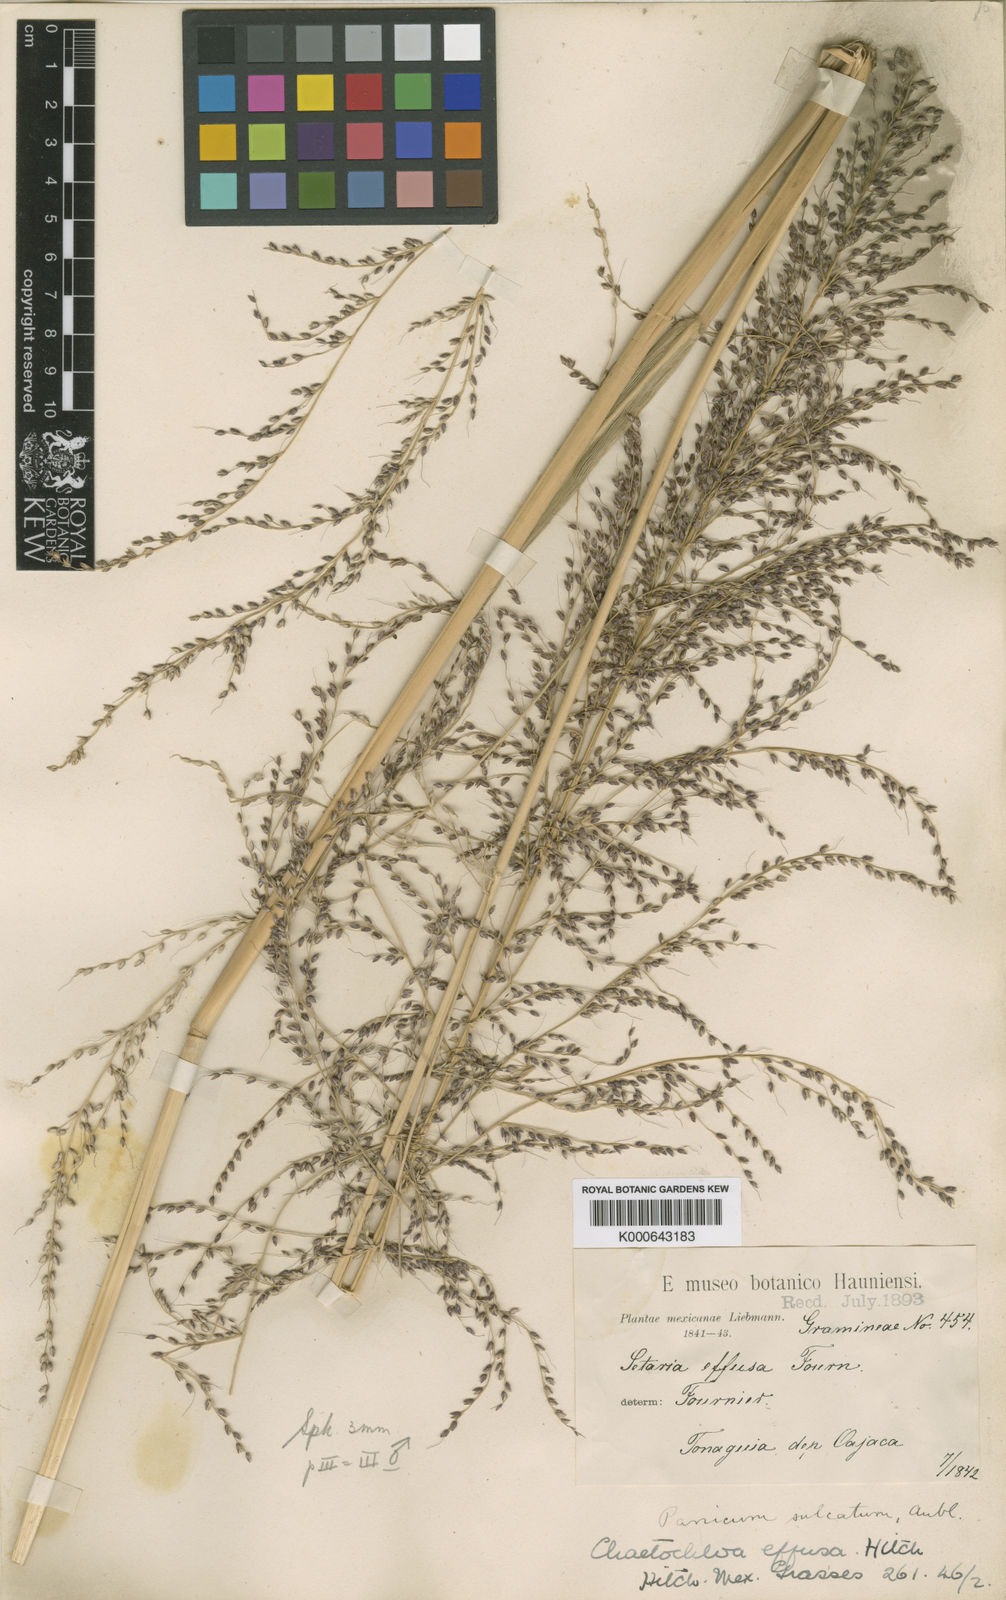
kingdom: Plantae
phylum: Tracheophyta
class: Liliopsida
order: Poales
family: Poaceae
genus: Setaria
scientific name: Setaria palmifolia
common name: Broadleaved bristlegrass
